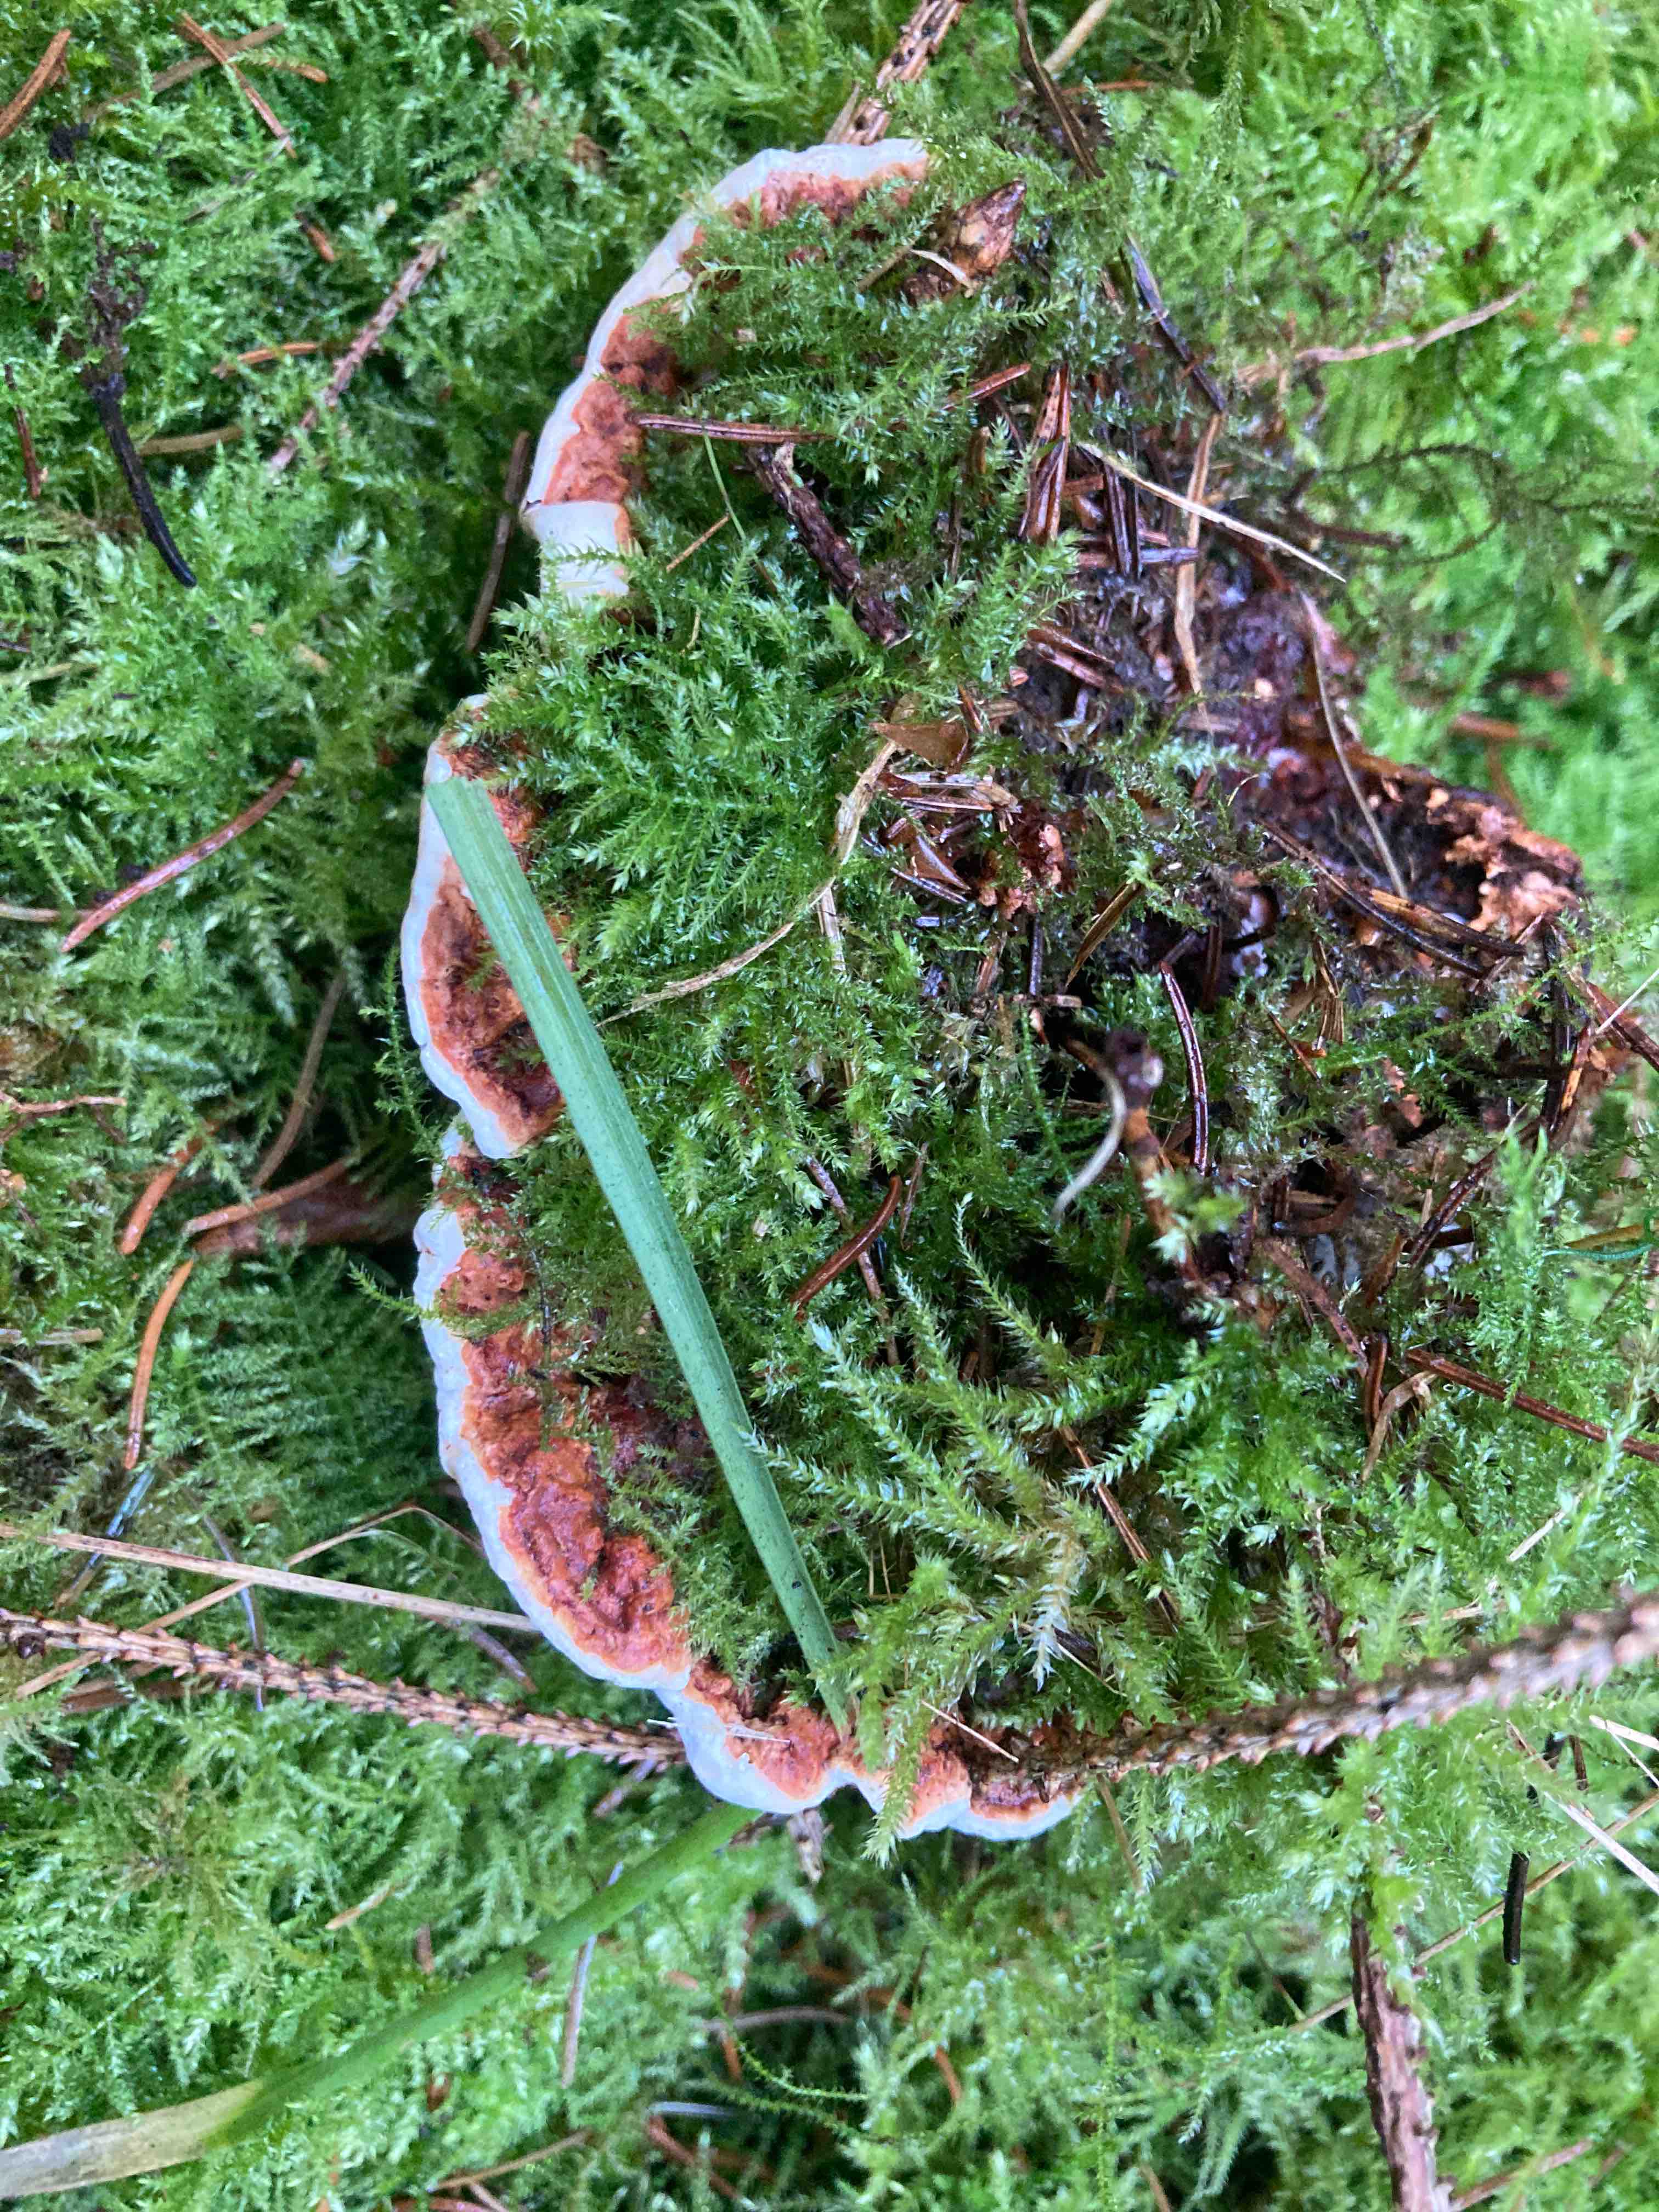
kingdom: Fungi
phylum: Basidiomycota
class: Agaricomycetes
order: Russulales
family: Bondarzewiaceae
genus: Heterobasidion
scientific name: Heterobasidion
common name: rodfordærver
